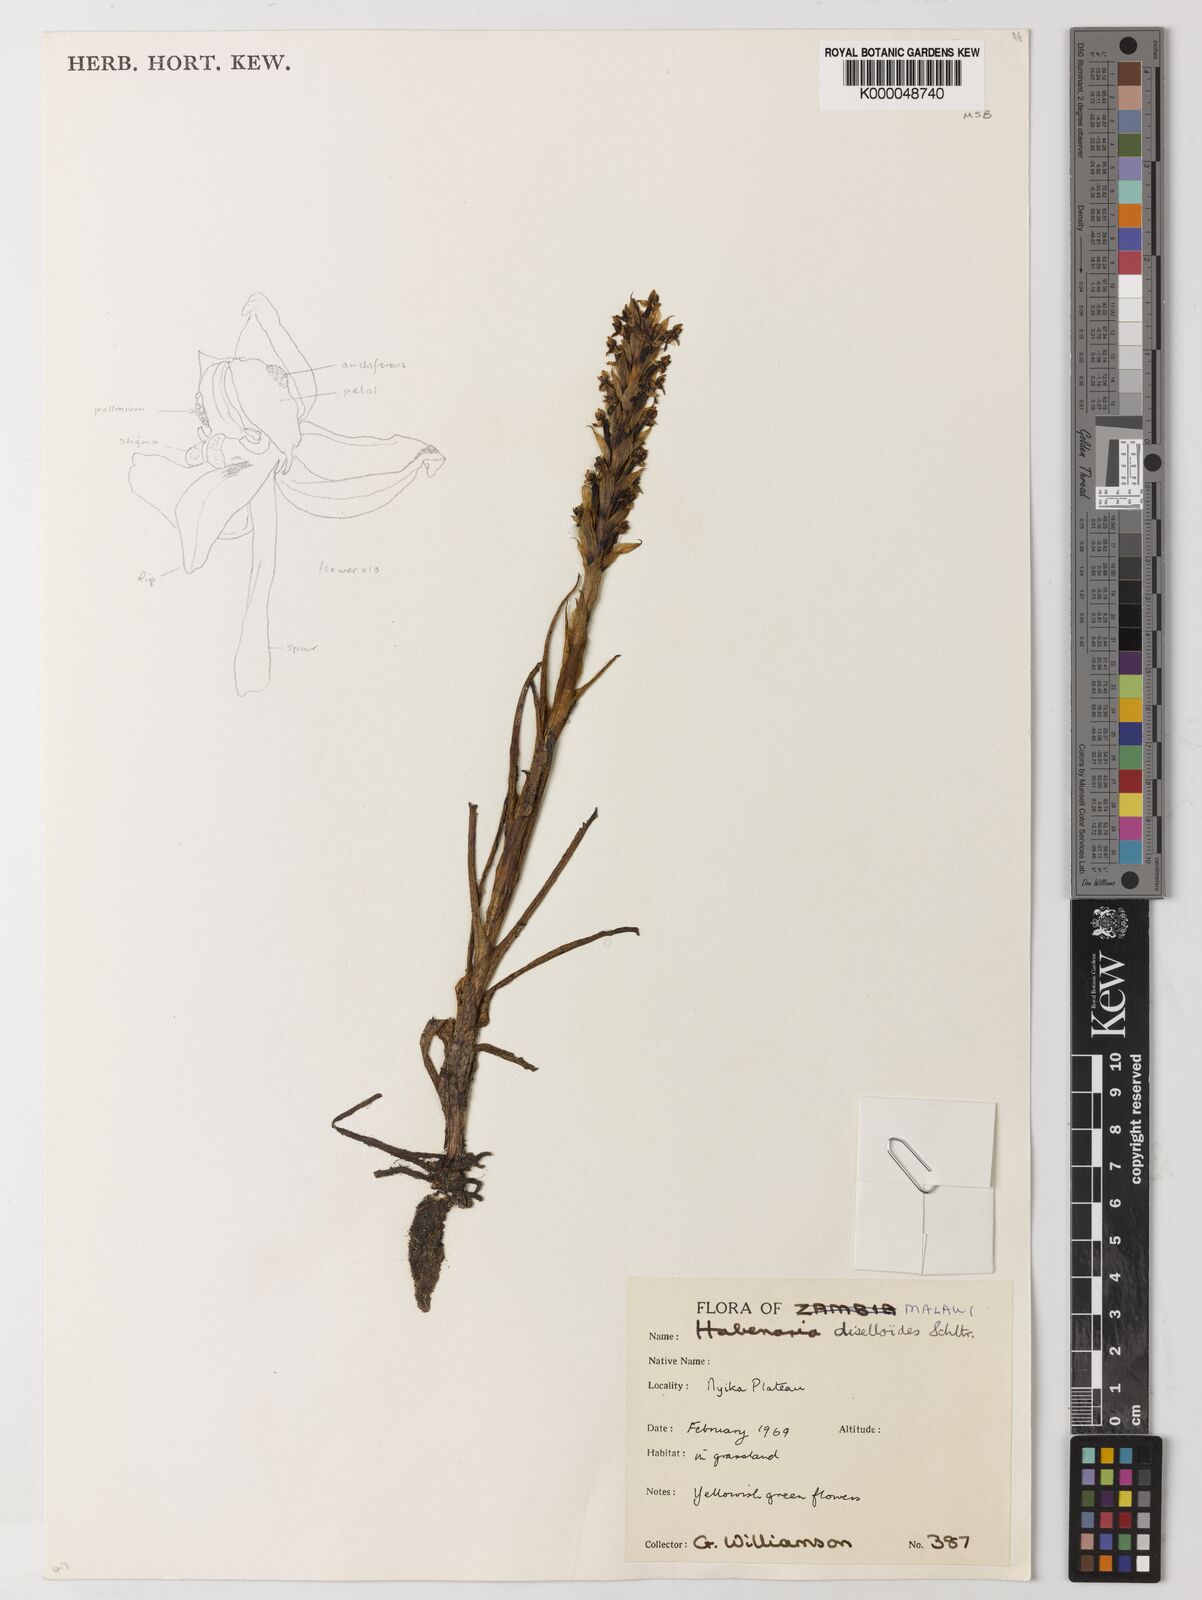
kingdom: Plantae
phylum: Tracheophyta
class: Liliopsida
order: Asparagales
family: Orchidaceae
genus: Habenaria
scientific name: Habenaria diselloides
